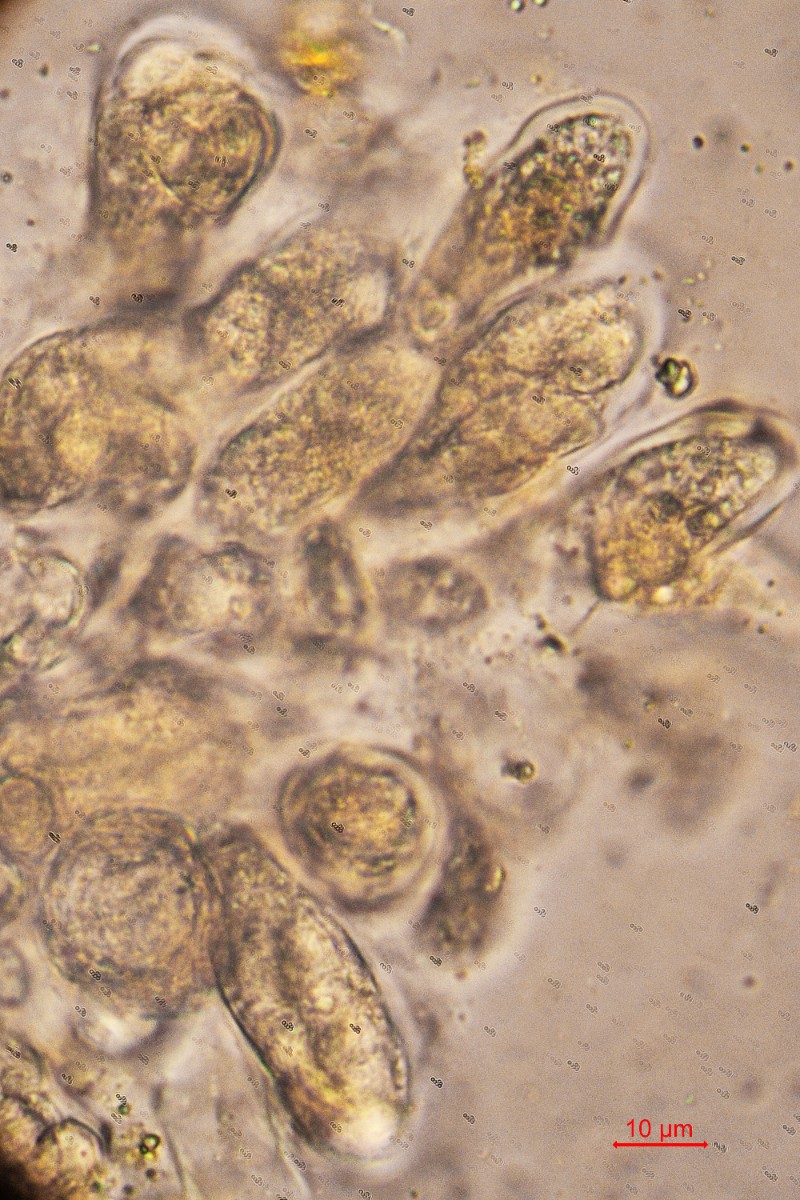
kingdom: Fungi
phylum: Ascomycota
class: Eurotiomycetes
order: Verrucariales
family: Verrucariaceae
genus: Telogalla
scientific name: Telogalla olivieri
